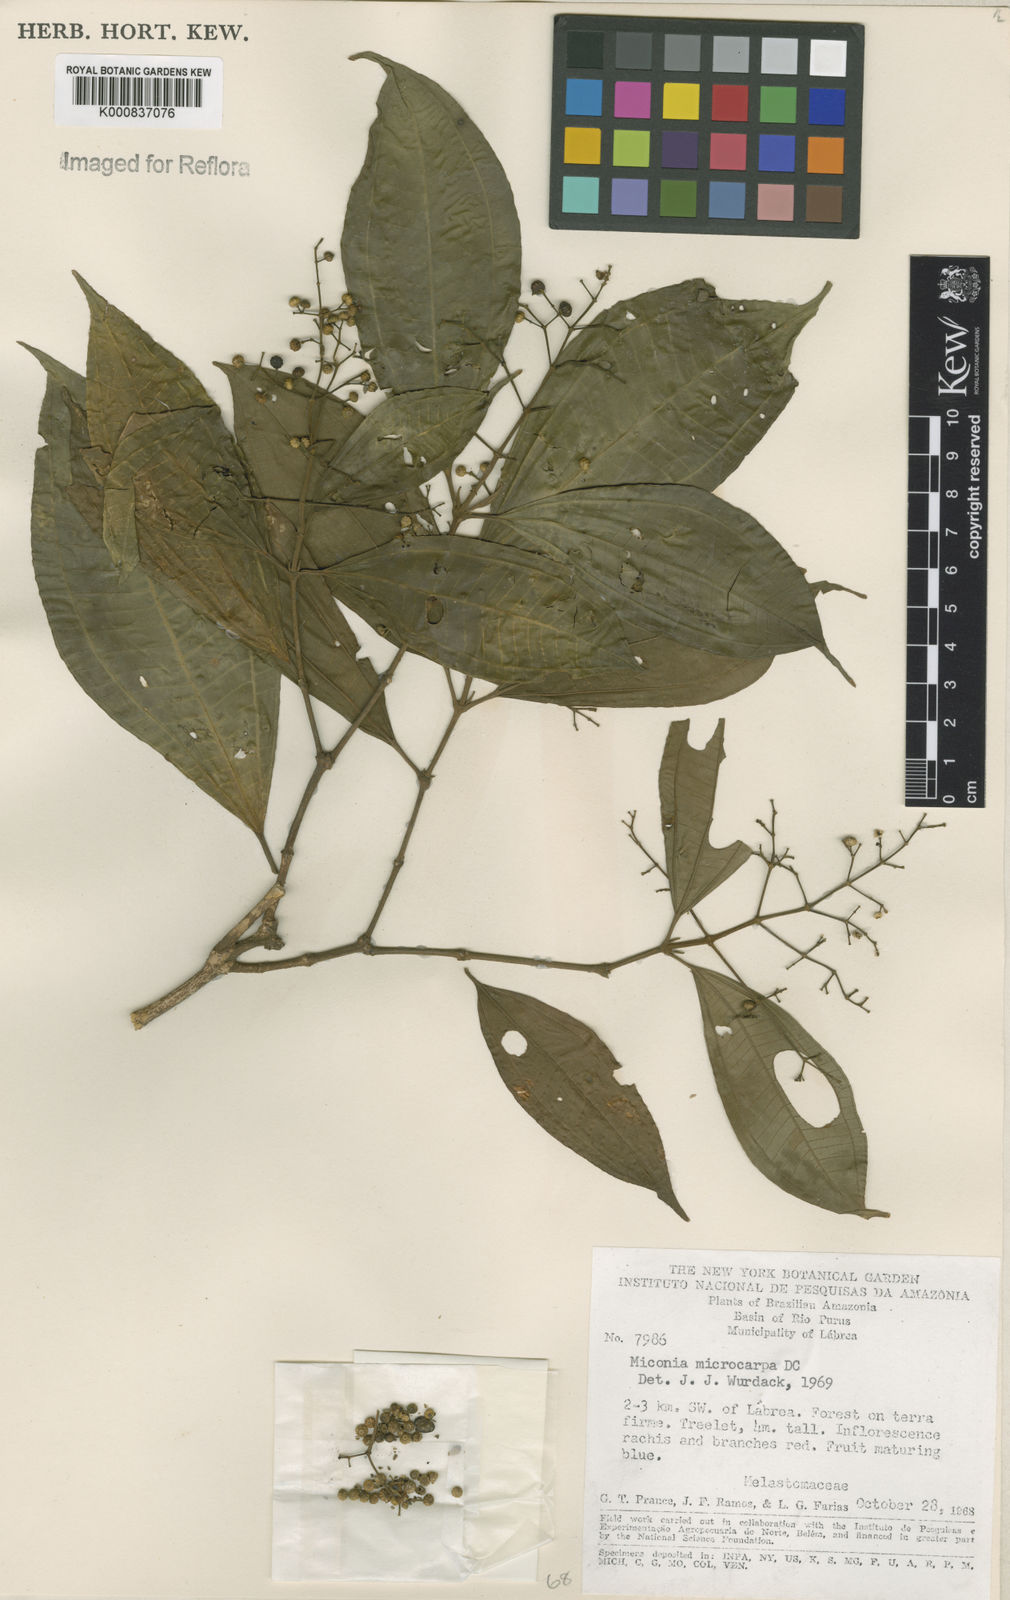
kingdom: Plantae
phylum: Tracheophyta
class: Magnoliopsida
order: Myrtales
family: Melastomataceae
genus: Miconia
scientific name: Miconia affinis
